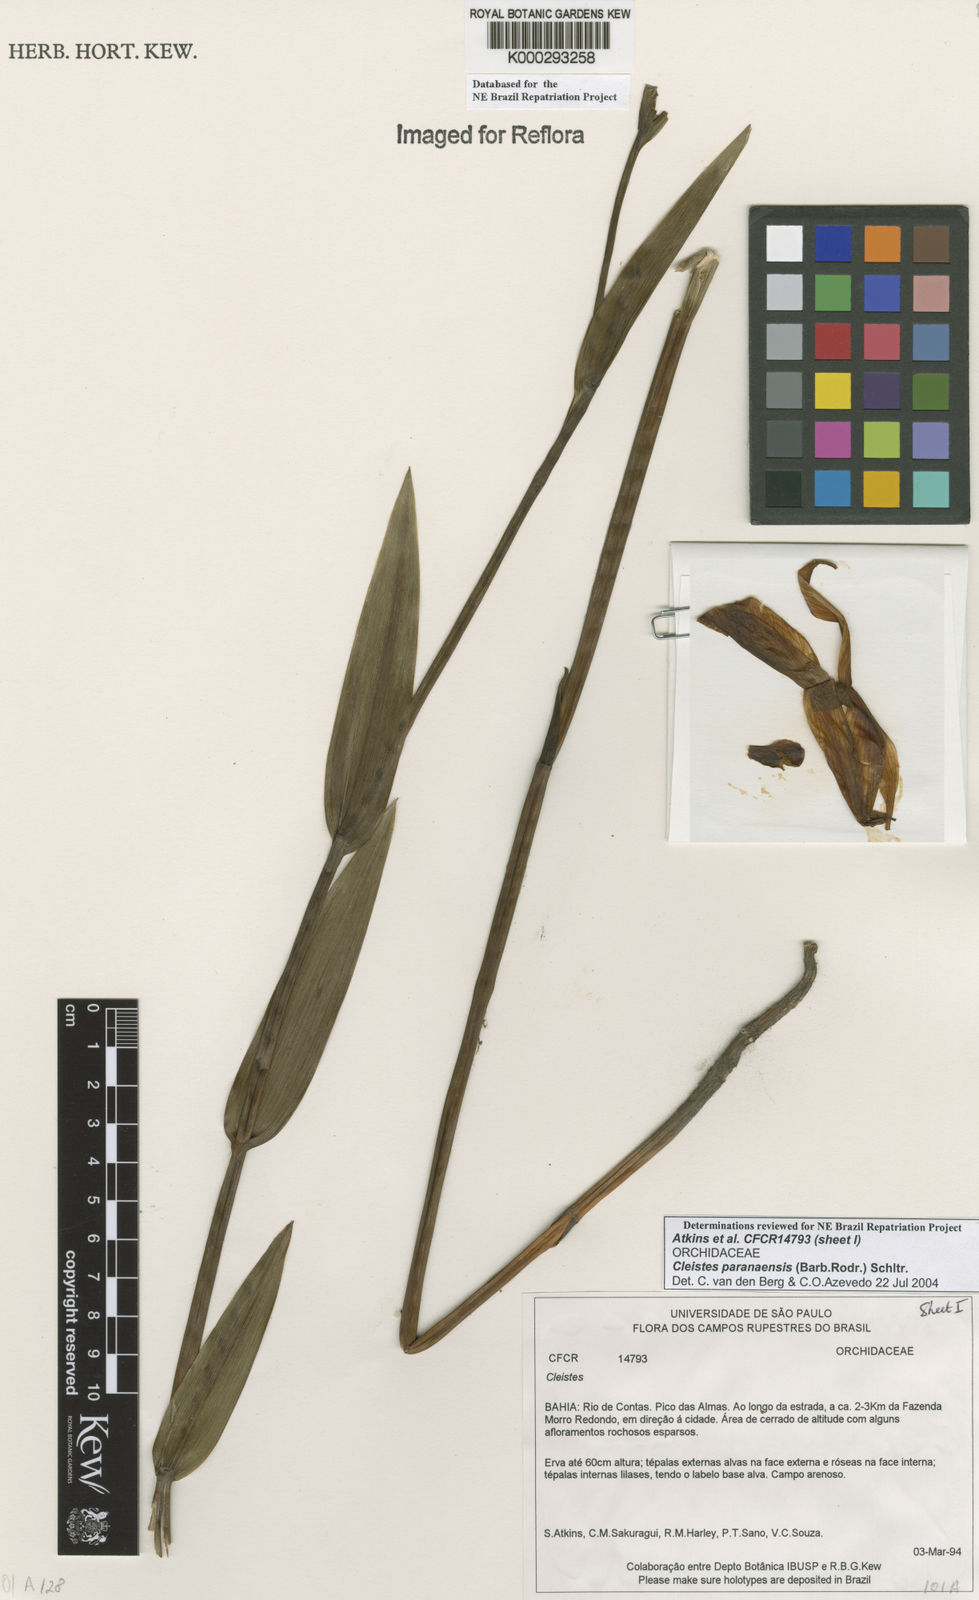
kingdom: Plantae
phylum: Tracheophyta
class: Liliopsida
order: Asparagales
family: Orchidaceae
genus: Cleistes
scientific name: Cleistes paranaensis
